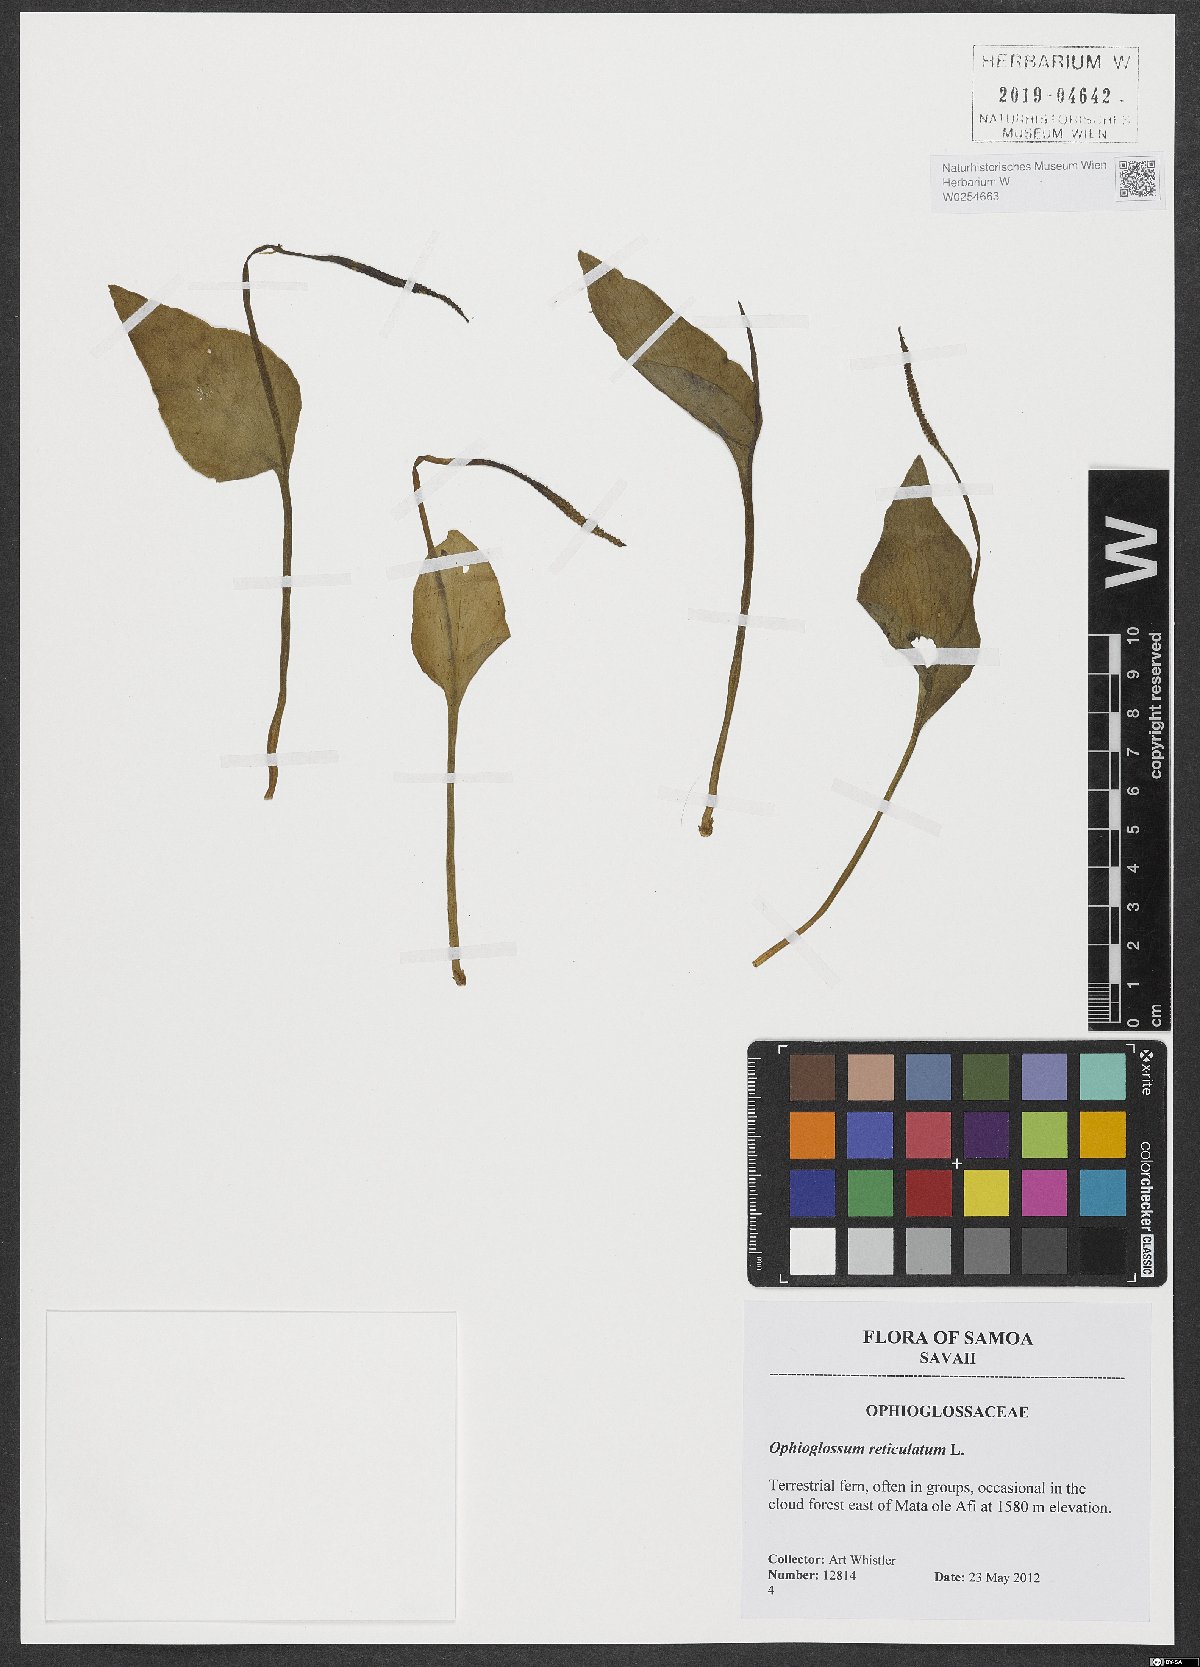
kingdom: Plantae
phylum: Tracheophyta
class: Polypodiopsida
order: Ophioglossales
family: Ophioglossaceae
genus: Ophioglossum
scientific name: Ophioglossum reticulatum
